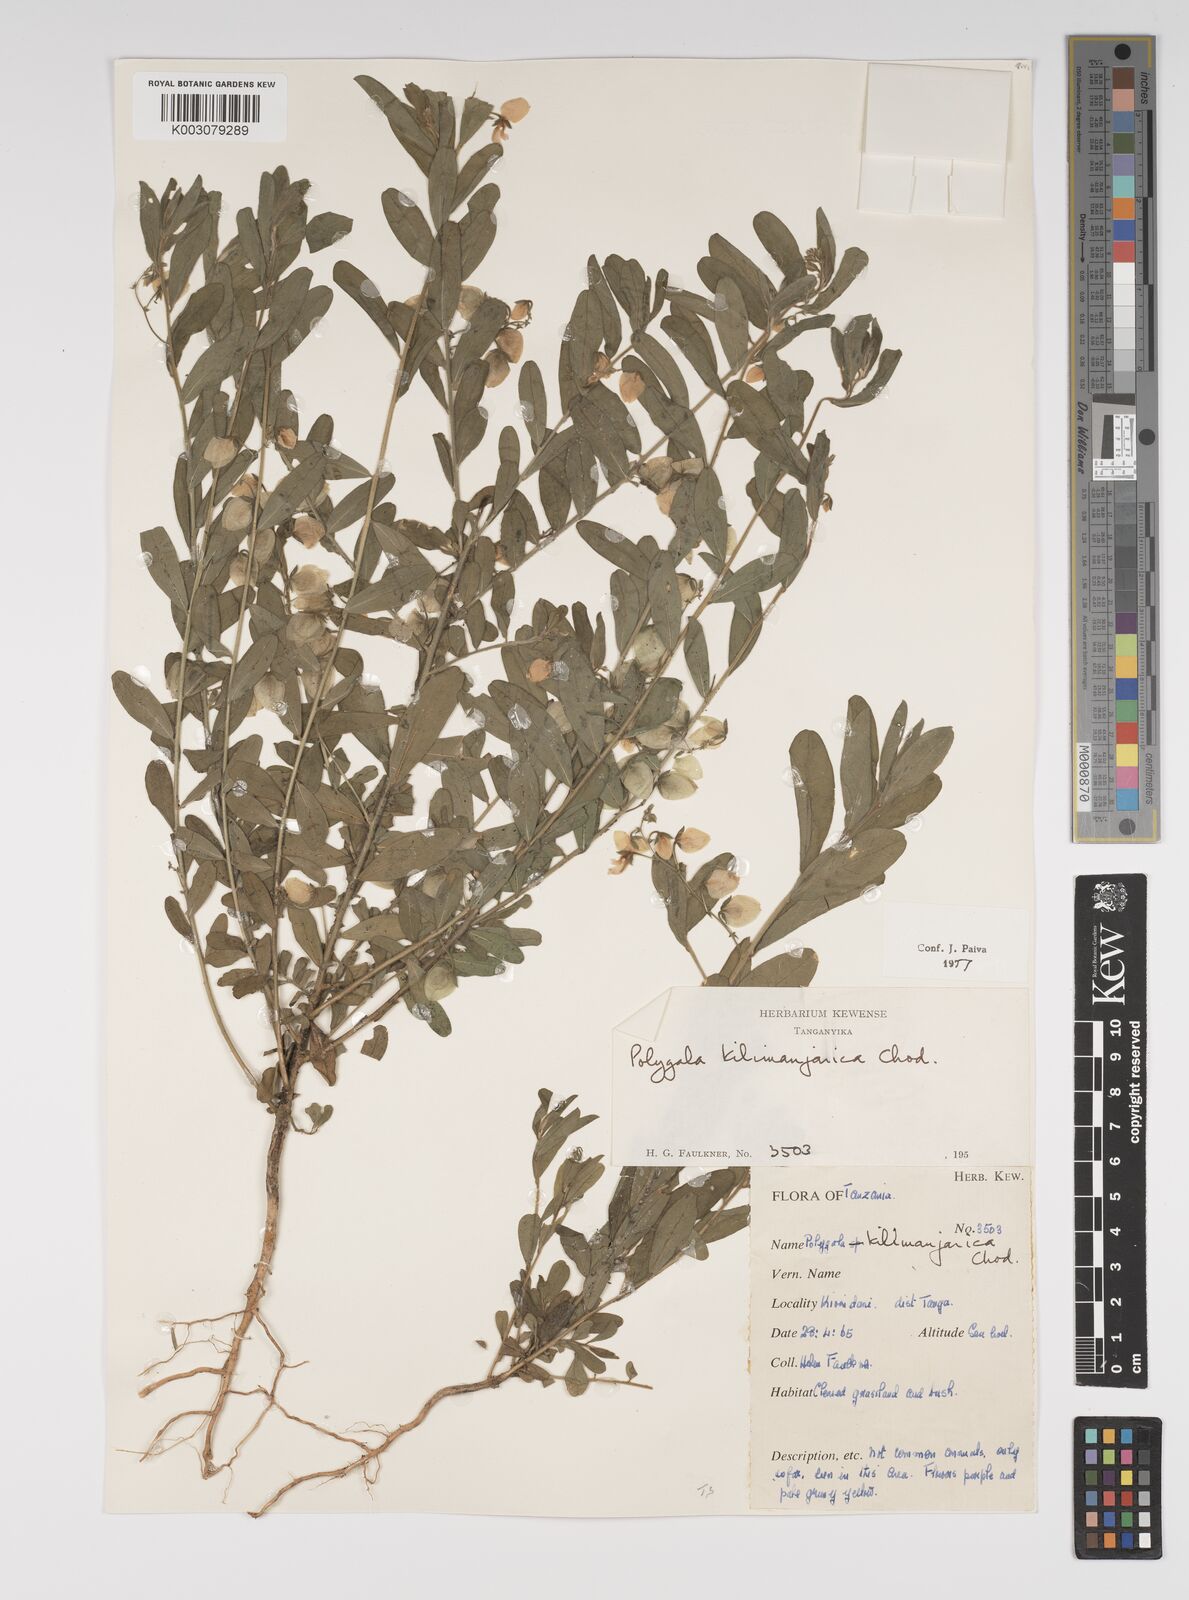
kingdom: Plantae
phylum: Tracheophyta
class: Magnoliopsida
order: Fabales
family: Polygalaceae
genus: Polygala
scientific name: Polygala kilimandjarica
